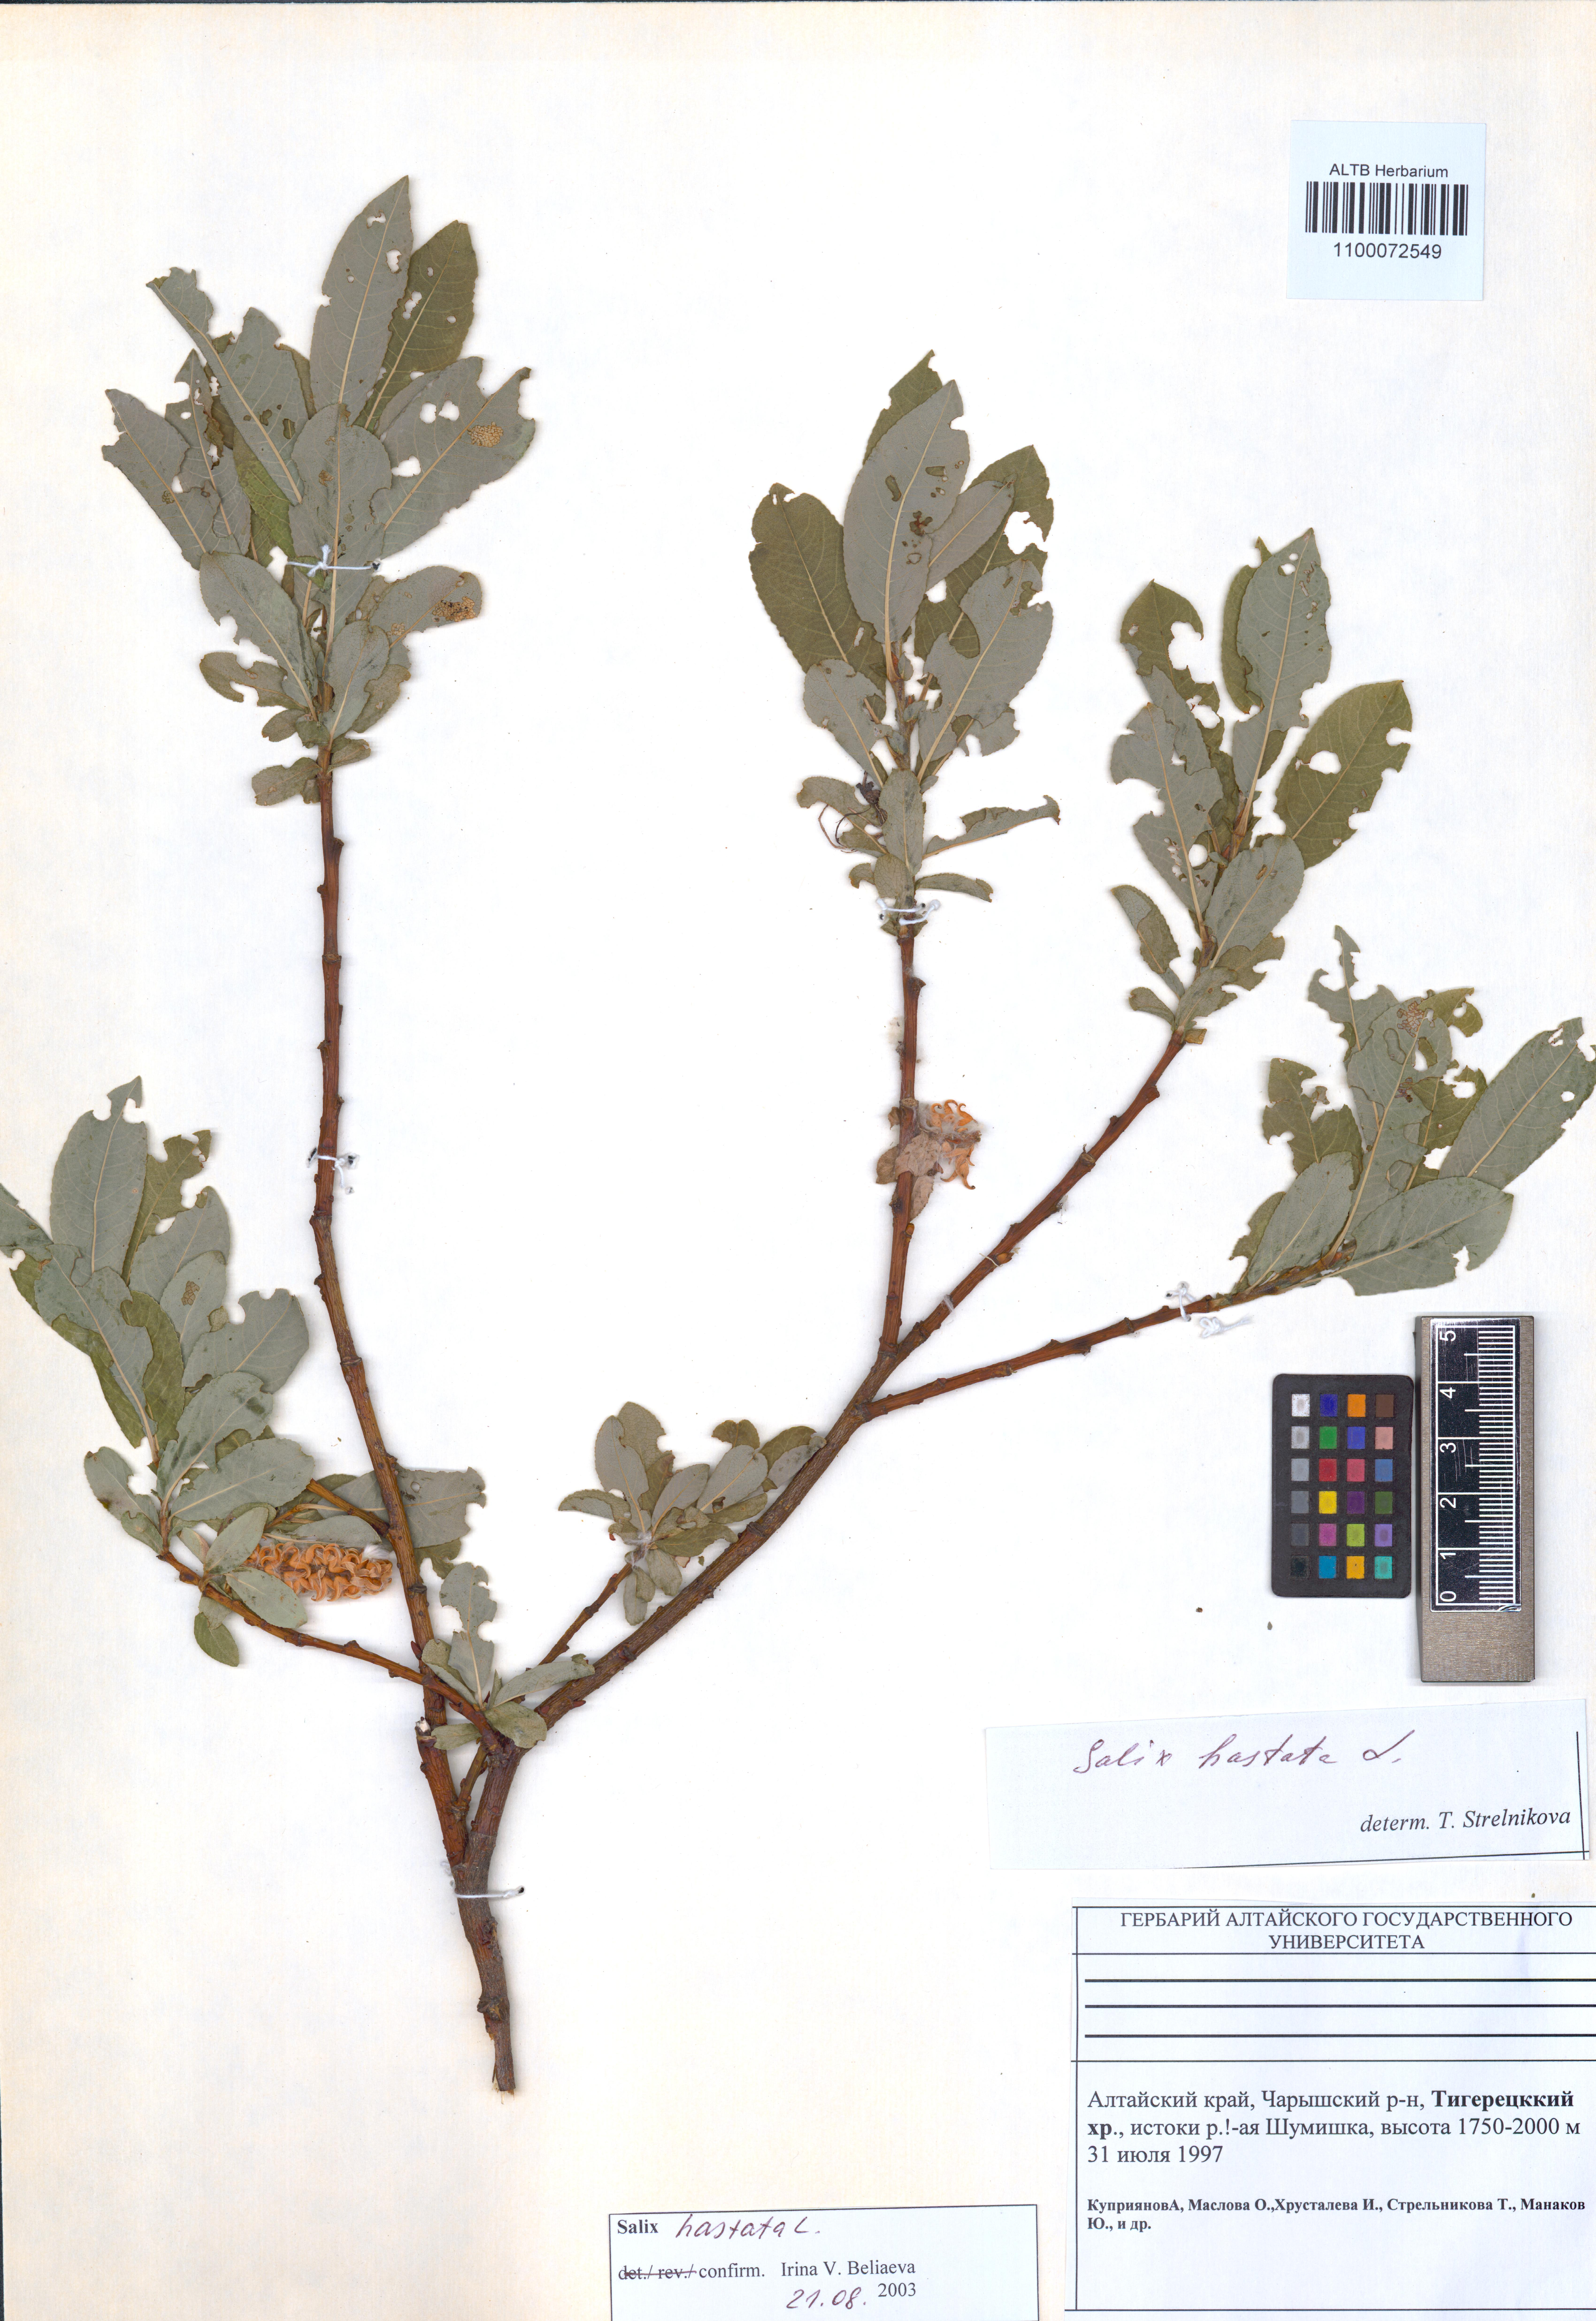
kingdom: Plantae
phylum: Tracheophyta
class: Magnoliopsida
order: Malpighiales
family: Salicaceae
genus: Salix
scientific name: Salix hastata
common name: Halberd willow
